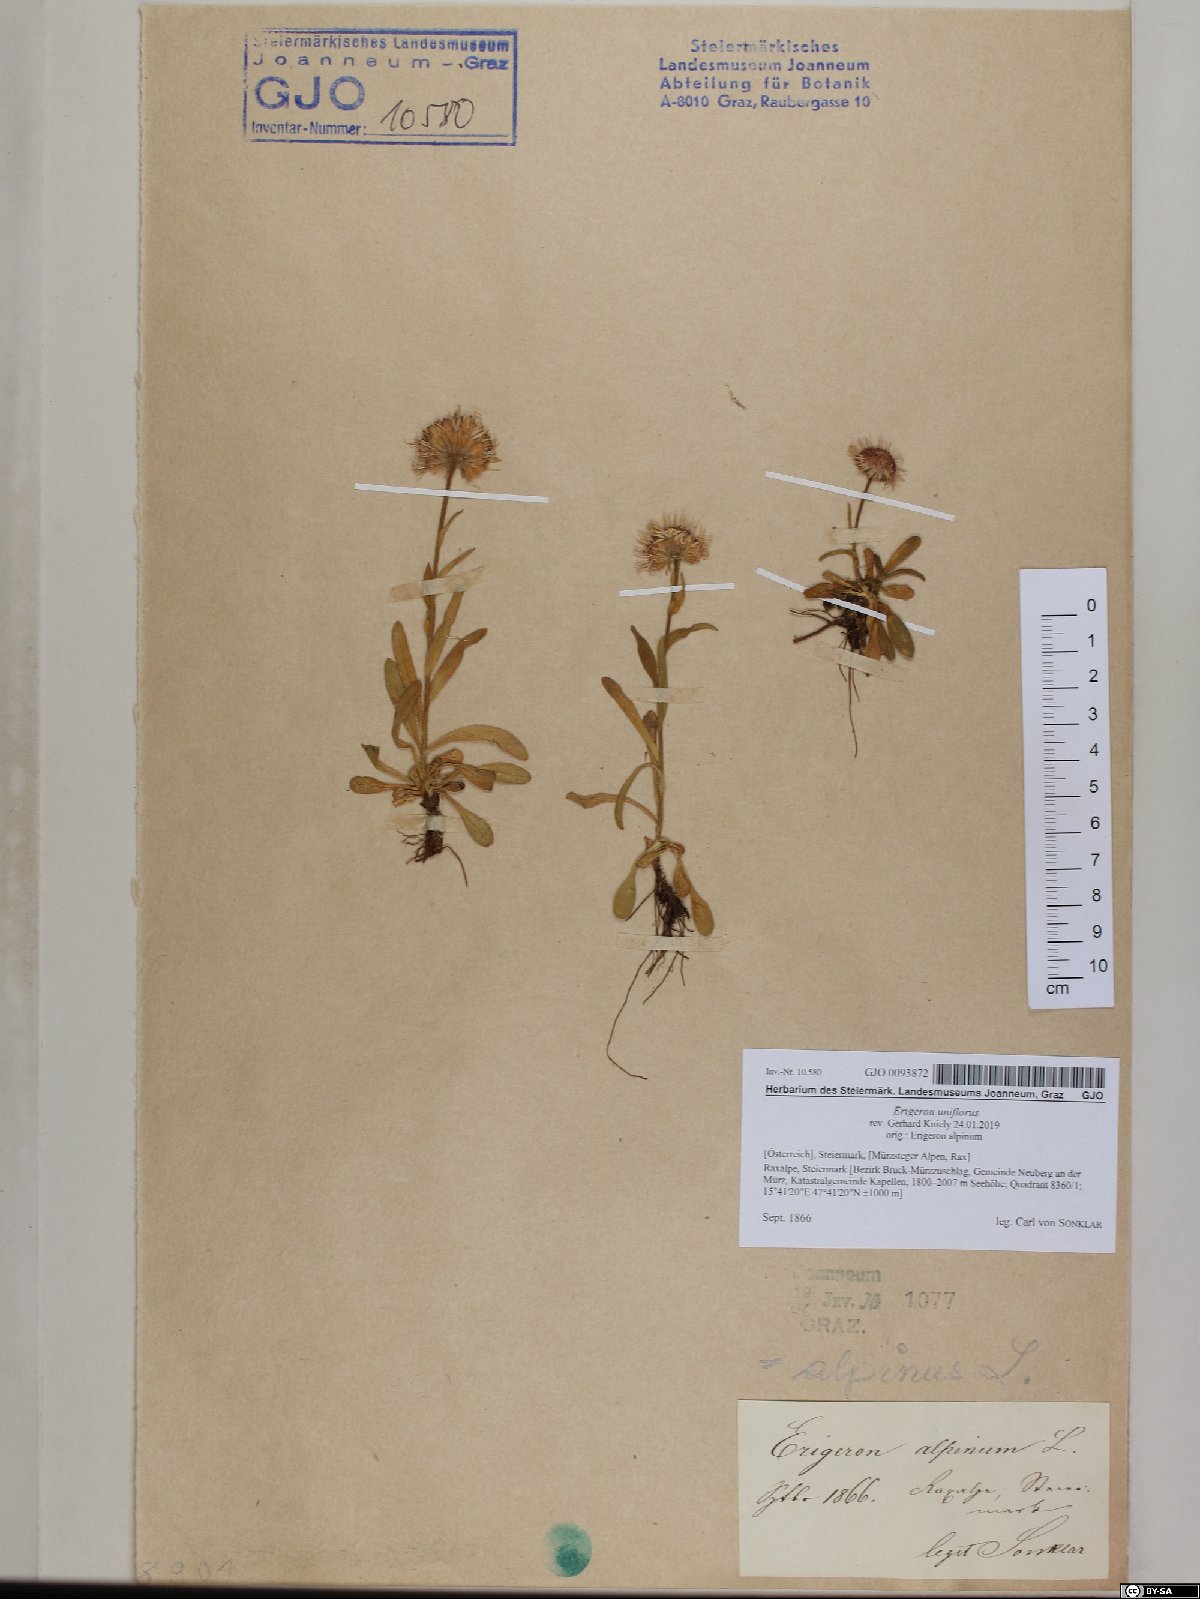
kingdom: Plantae
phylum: Tracheophyta
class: Magnoliopsida
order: Asterales
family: Asteraceae
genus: Erigeron
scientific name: Erigeron uniflorus
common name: Northern daisy
